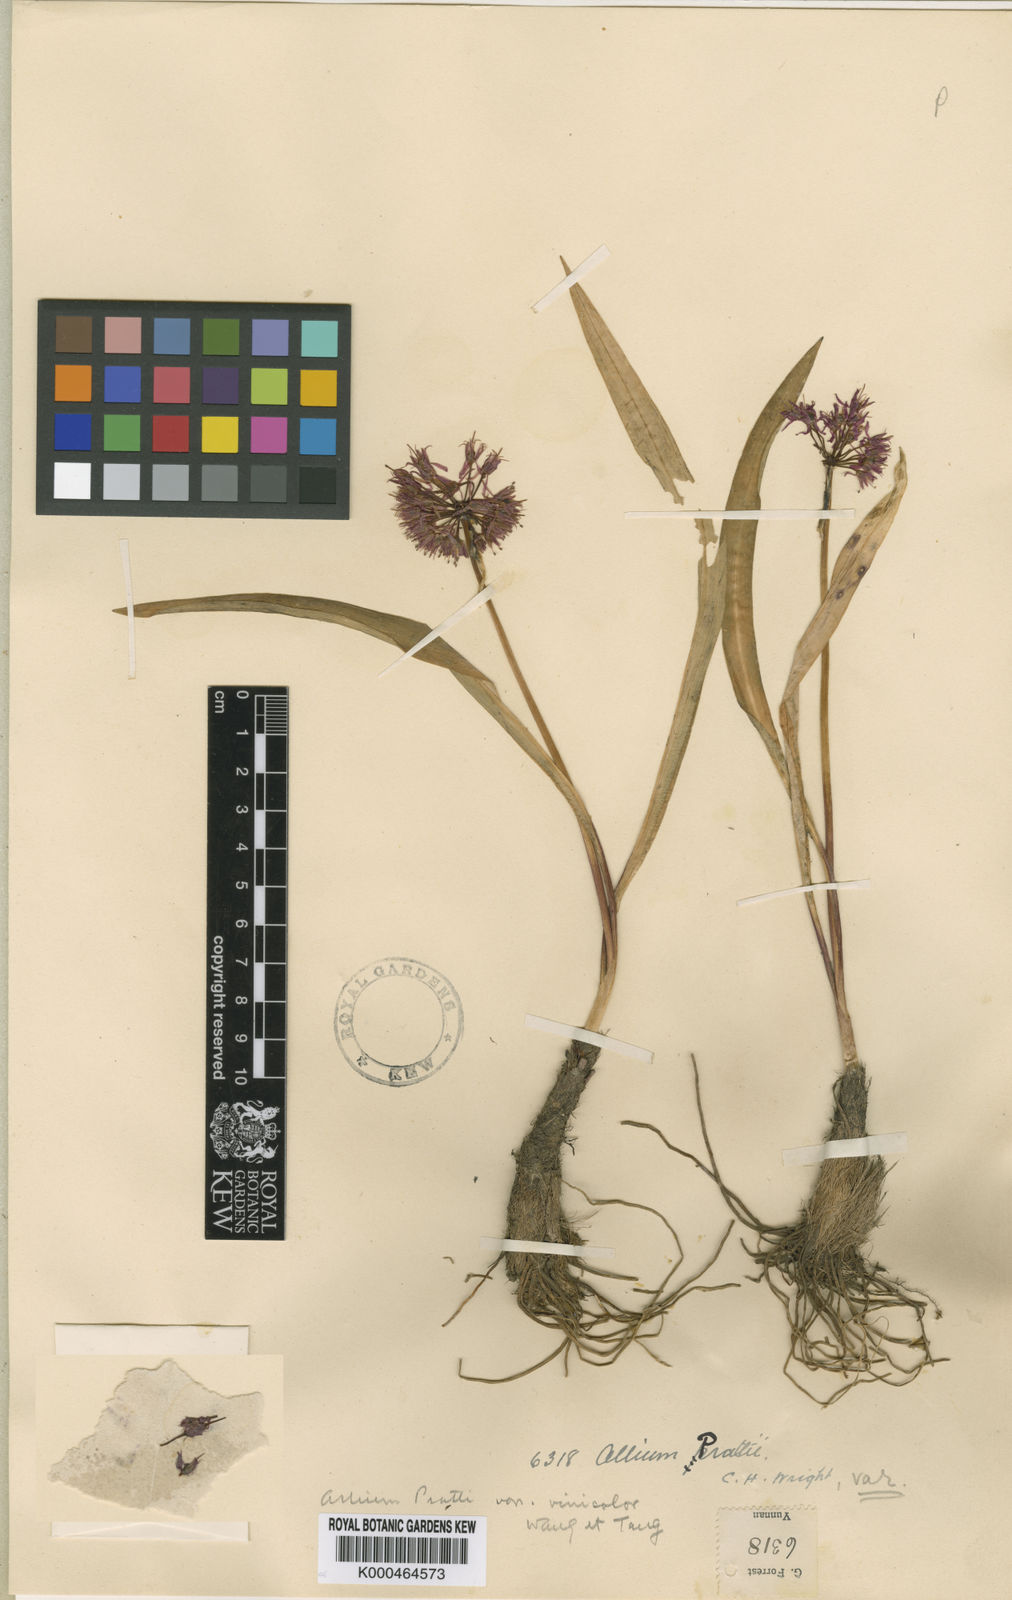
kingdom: Plantae
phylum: Tracheophyta
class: Liliopsida
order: Asparagales
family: Amaryllidaceae
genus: Allium
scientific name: Allium prattii
